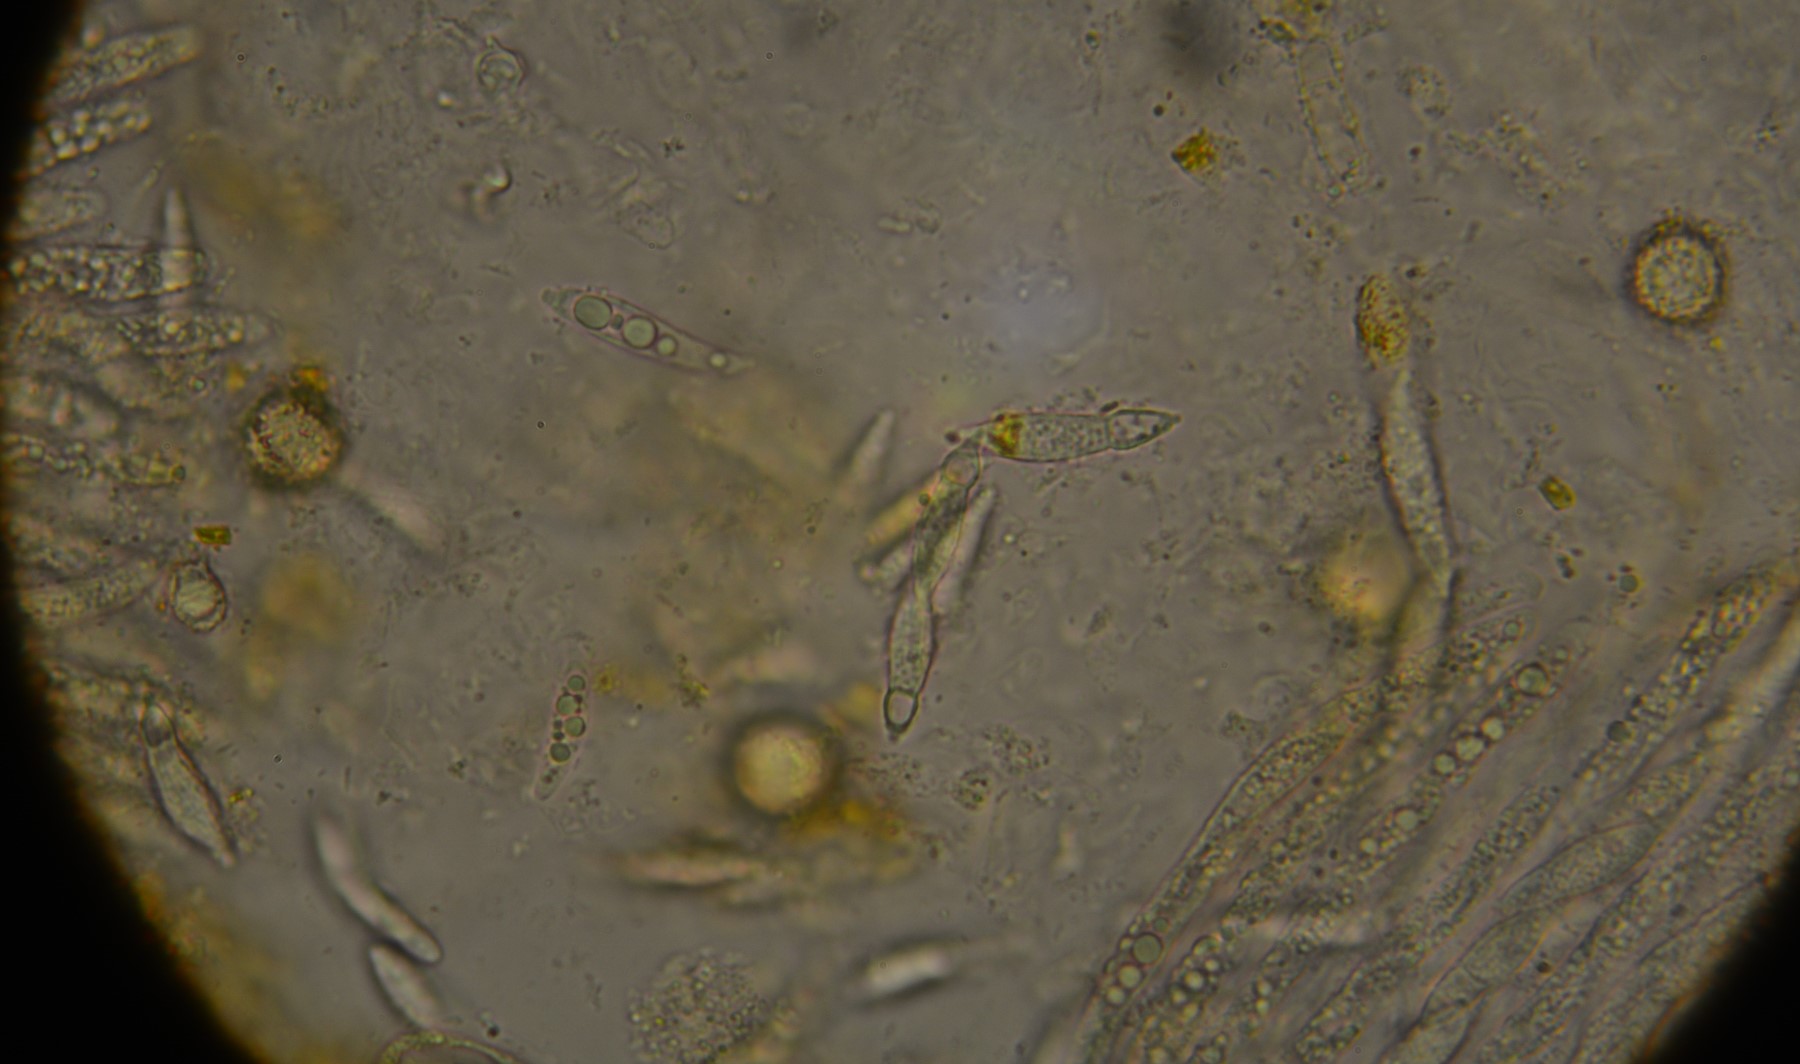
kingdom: Fungi
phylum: Ascomycota
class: Sordariomycetes
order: Hypocreales
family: Hypocreaceae
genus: Hypomyces
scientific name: Hypomyces chrysospermus
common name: gulskimmel-snylteskorpe
